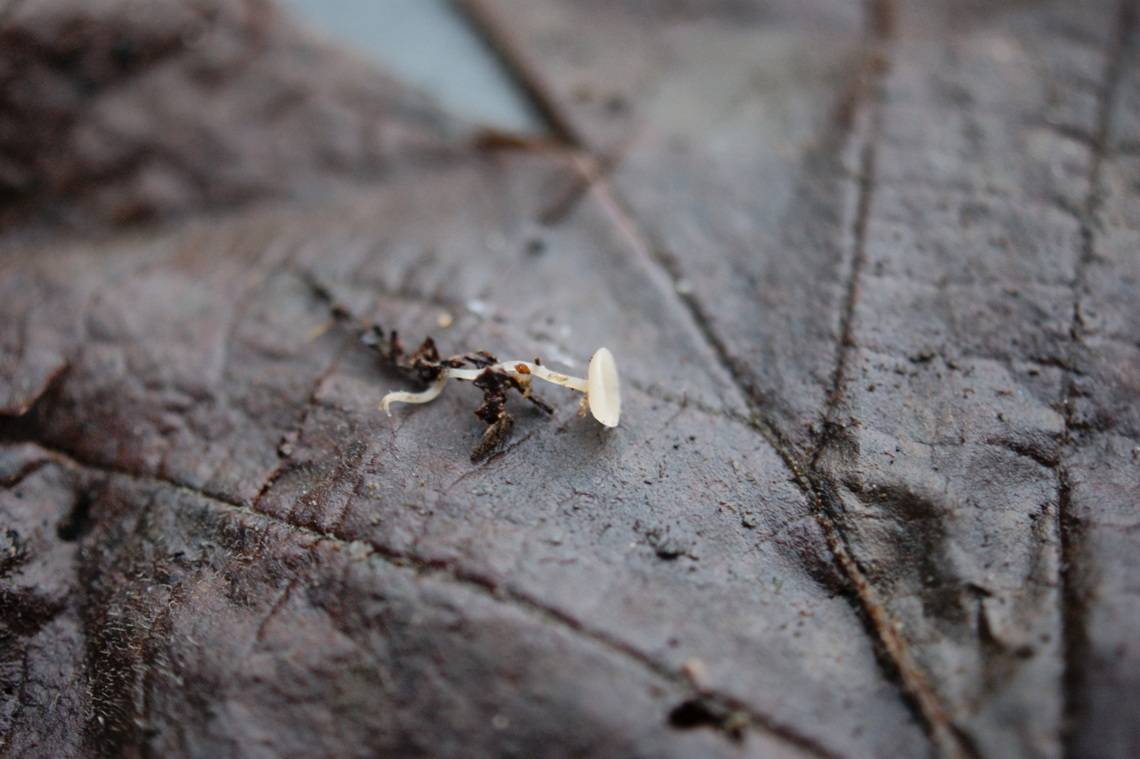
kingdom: Fungi
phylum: Ascomycota
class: Leotiomycetes
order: Helotiales
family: Sclerotiniaceae
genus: Ciboria
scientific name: Ciboria
